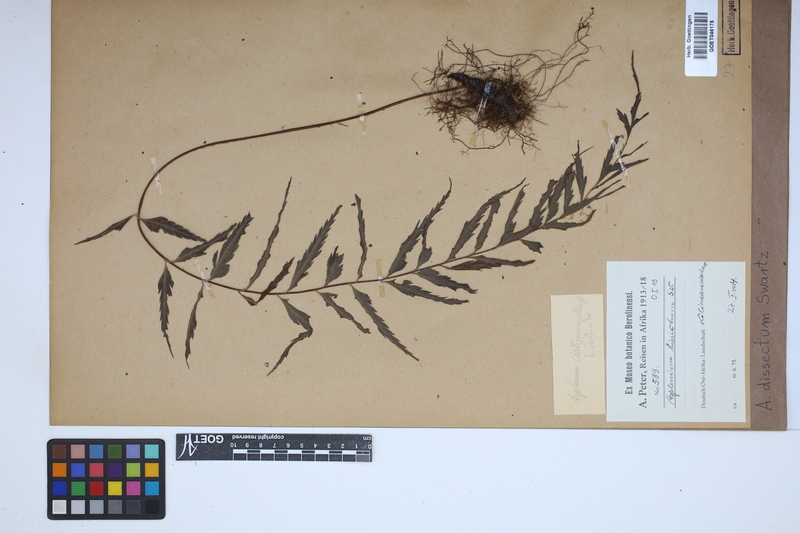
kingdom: Plantae
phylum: Tracheophyta
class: Polypodiopsida
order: Polypodiales
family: Aspleniaceae
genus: Asplenium
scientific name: Asplenium dissectum
